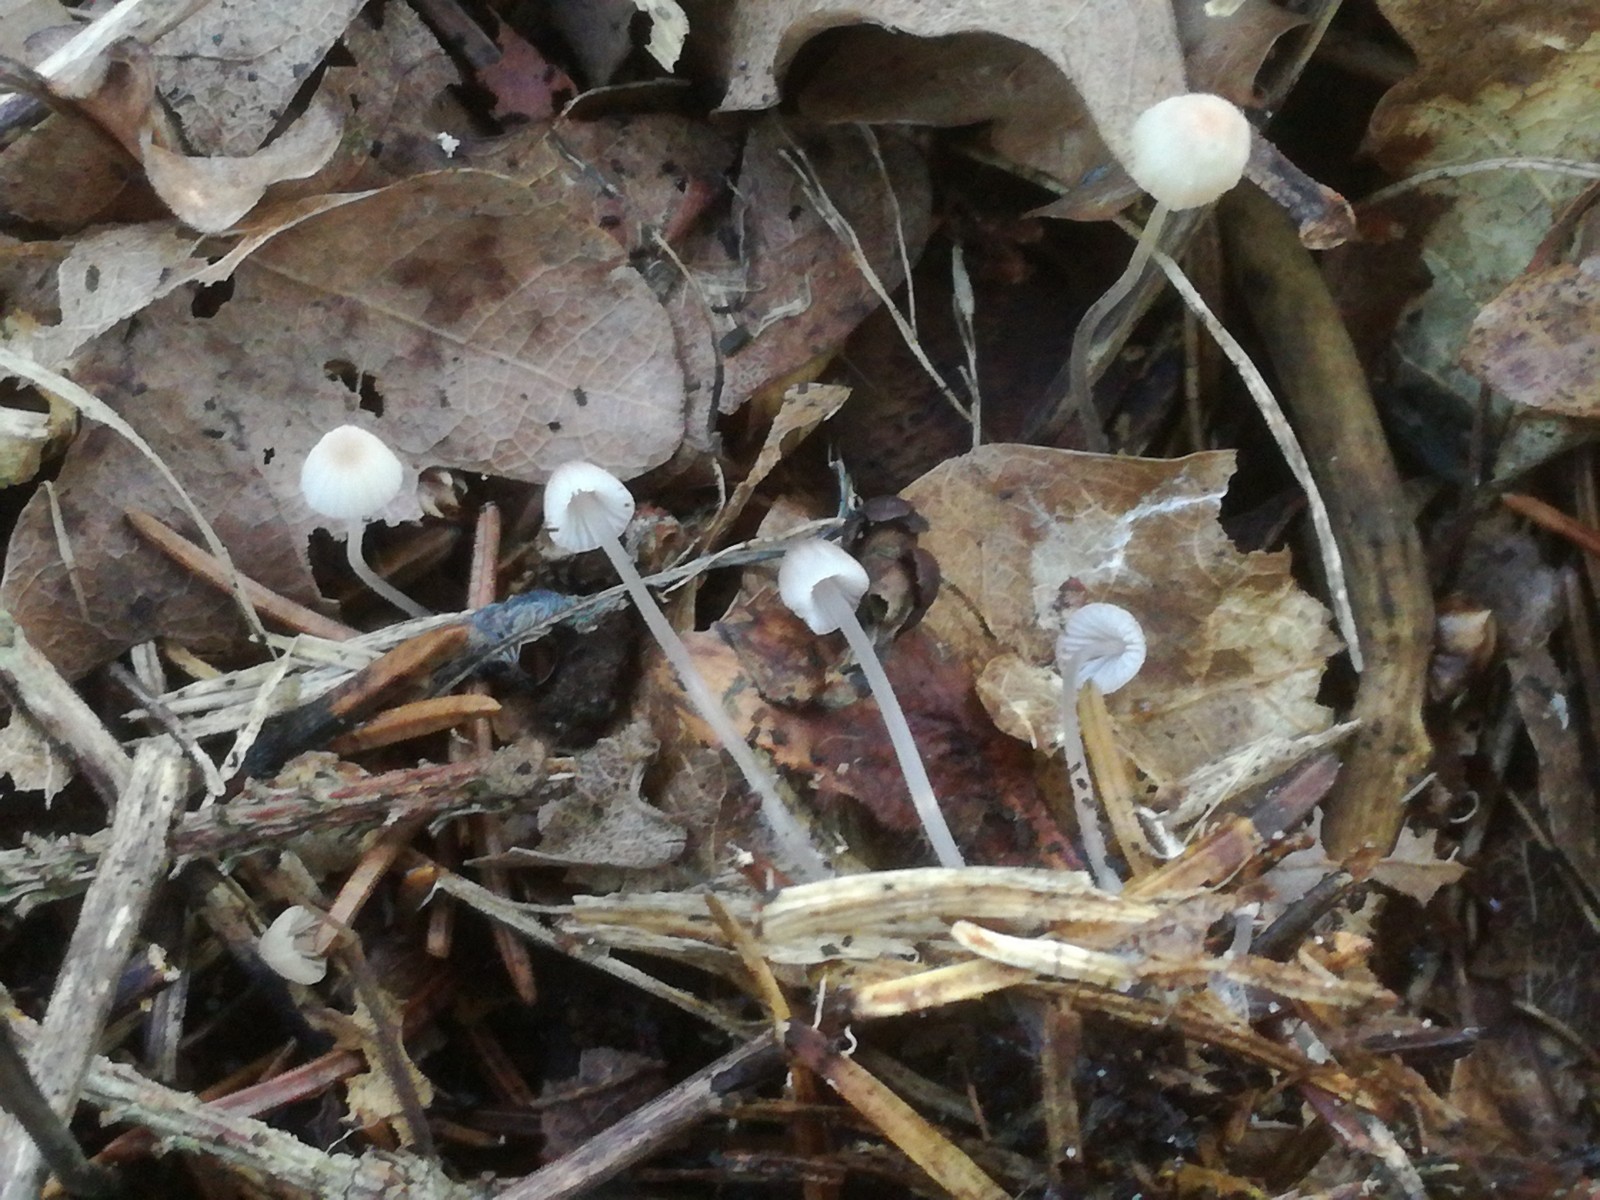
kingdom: Fungi
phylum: Basidiomycota
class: Agaricomycetes
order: Agaricales
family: Mycenaceae
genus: Mycena
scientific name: Mycena albidolilacea
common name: lyslilla huesvamp
